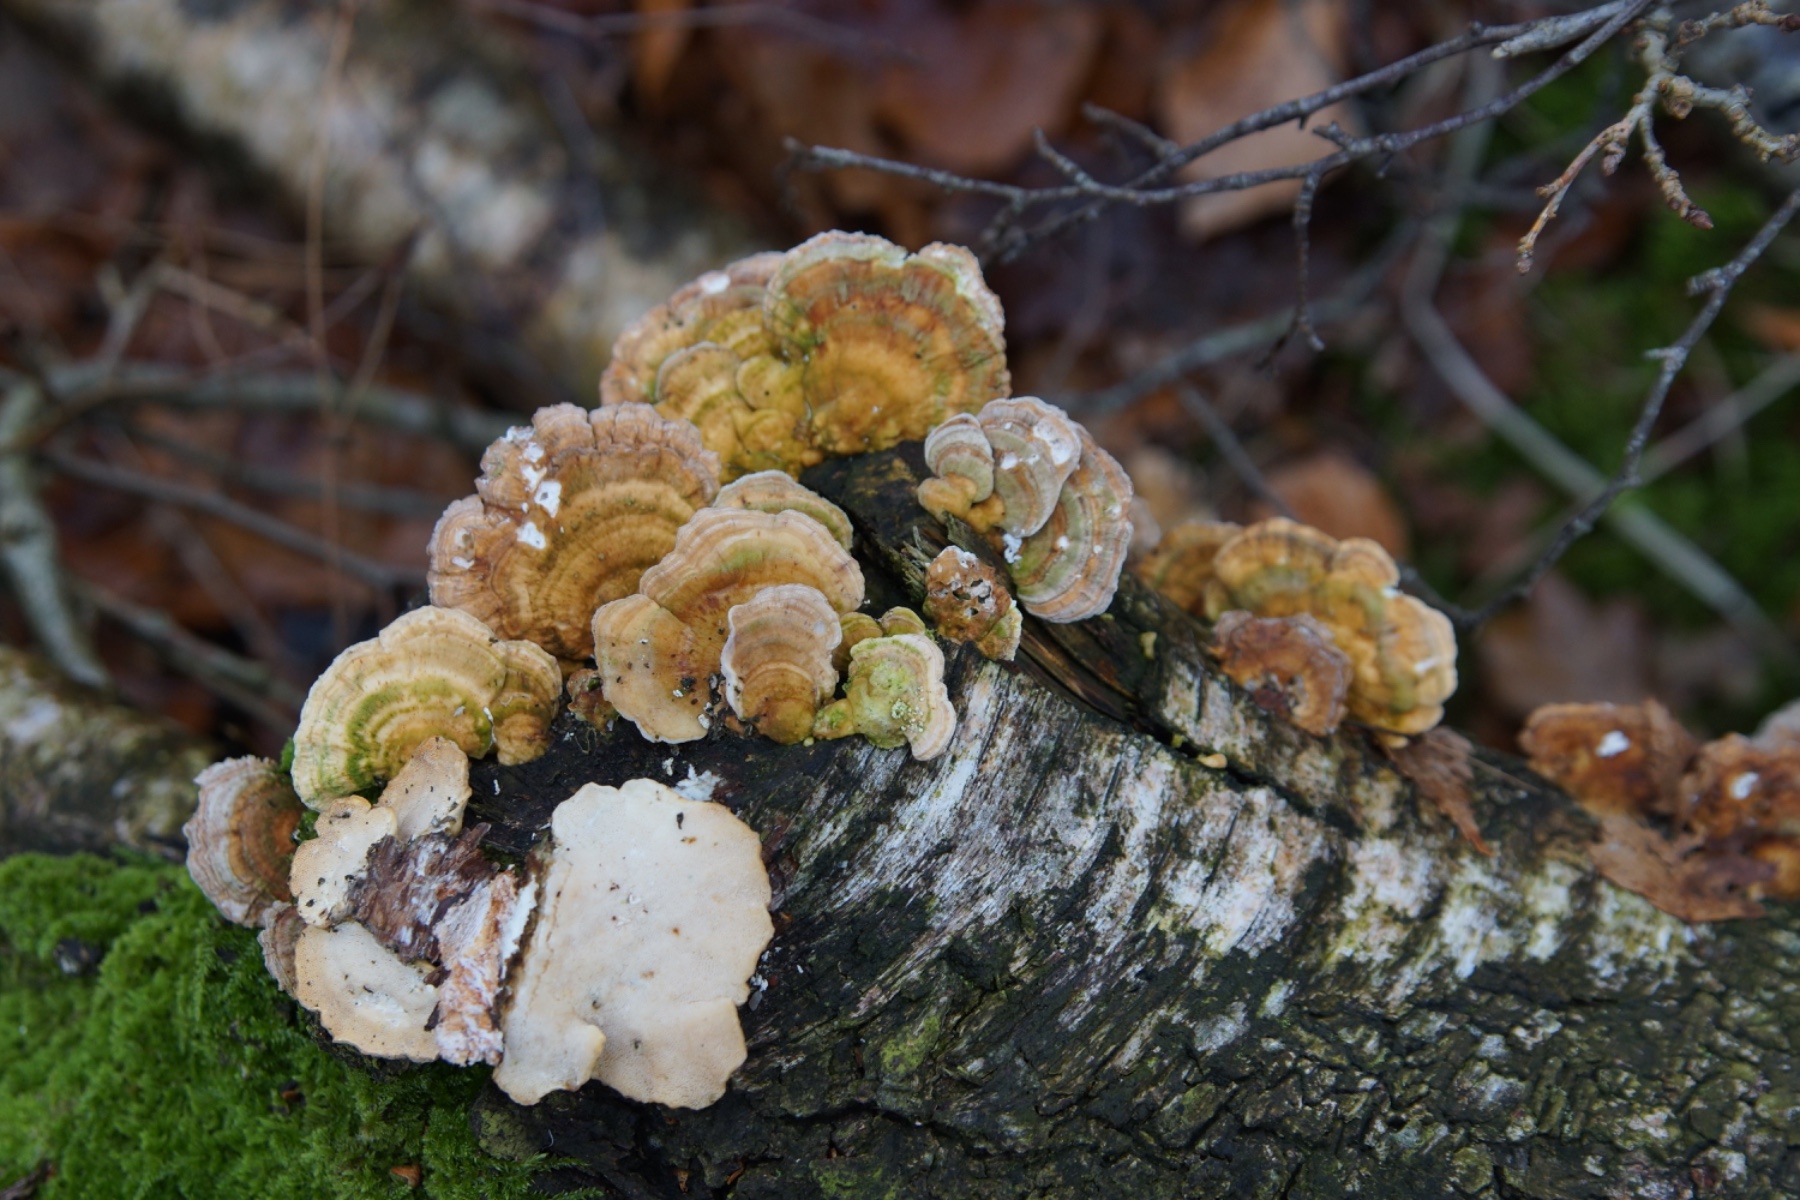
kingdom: Fungi
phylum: Basidiomycota
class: Agaricomycetes
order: Polyporales
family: Polyporaceae
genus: Trametes
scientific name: Trametes ochracea
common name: bæltet læderporesvamp
